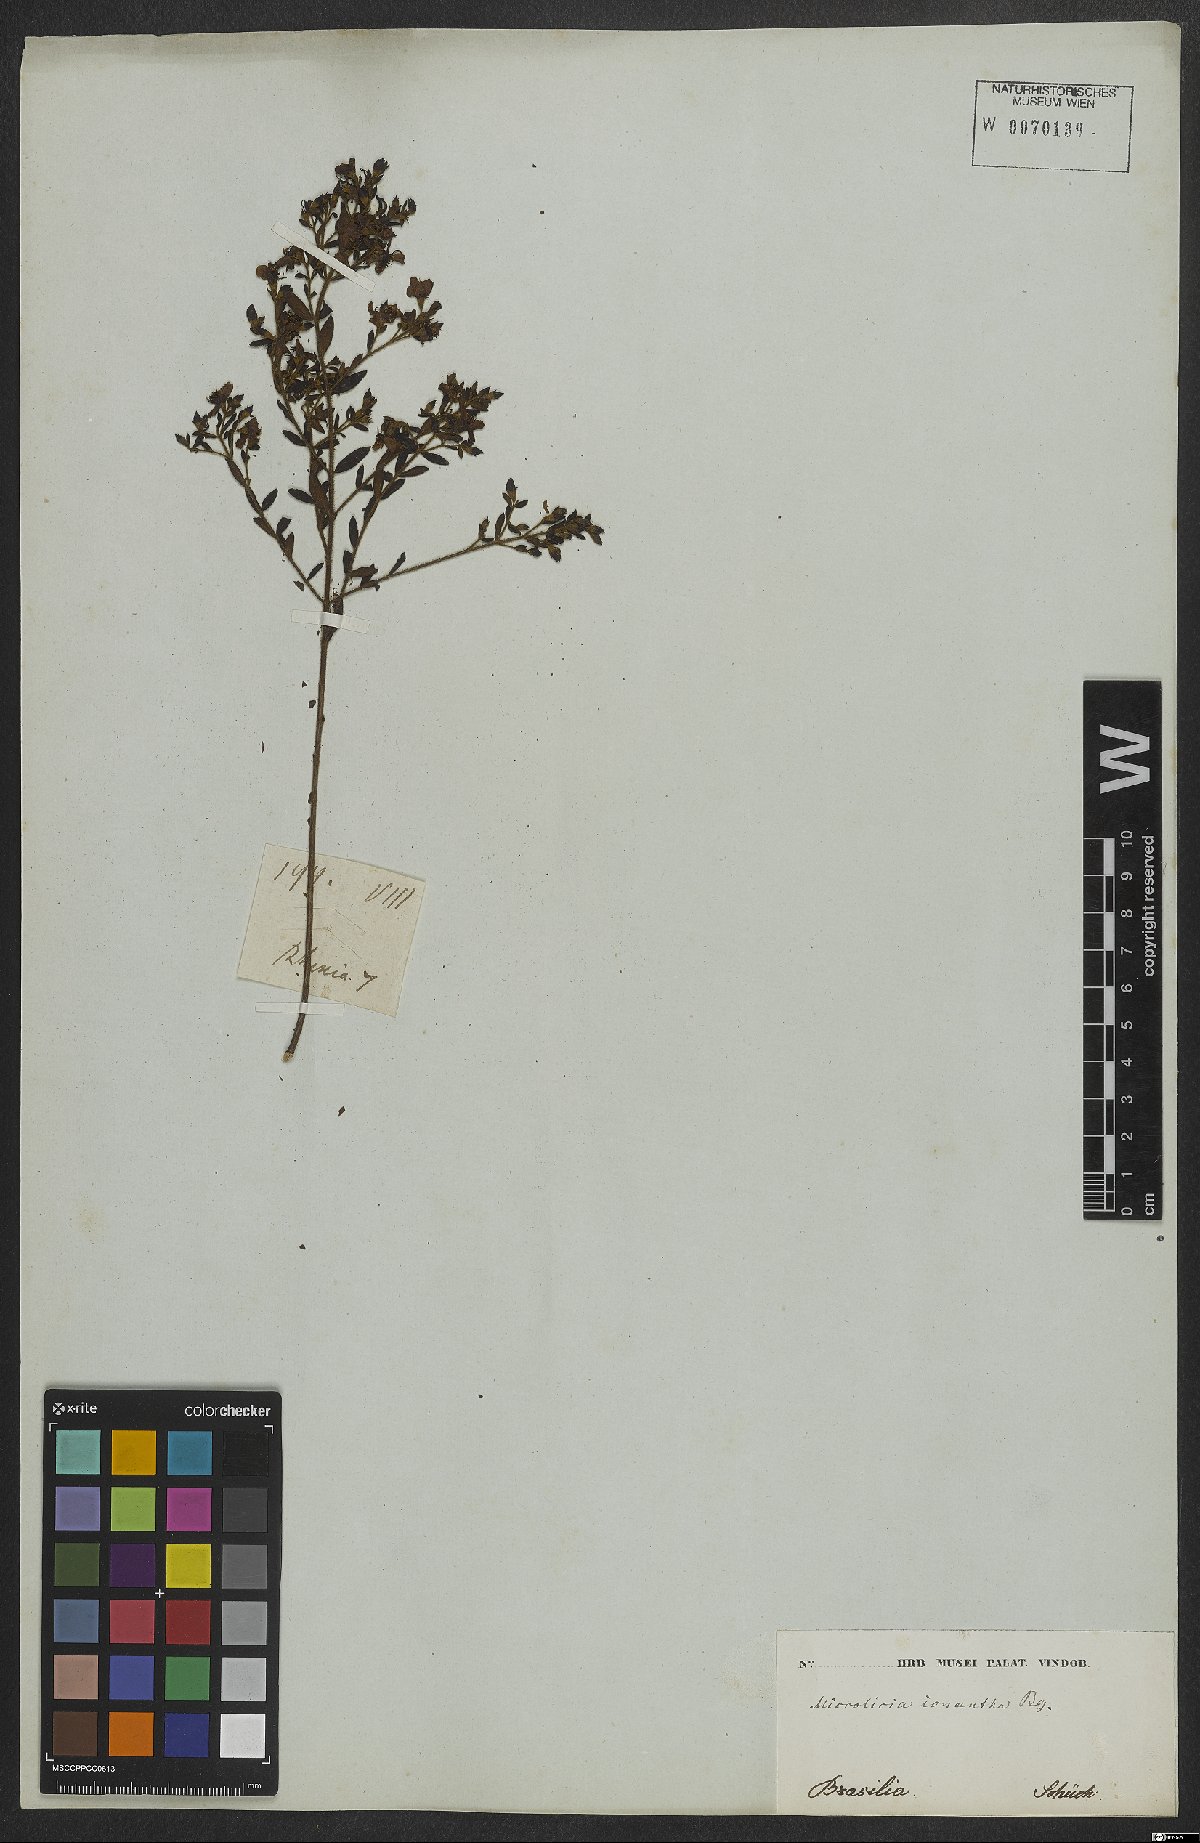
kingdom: Plantae
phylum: Tracheophyta
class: Magnoliopsida
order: Myrtales
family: Melastomataceae
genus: Microlicia
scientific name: Microlicia euphorbioides
